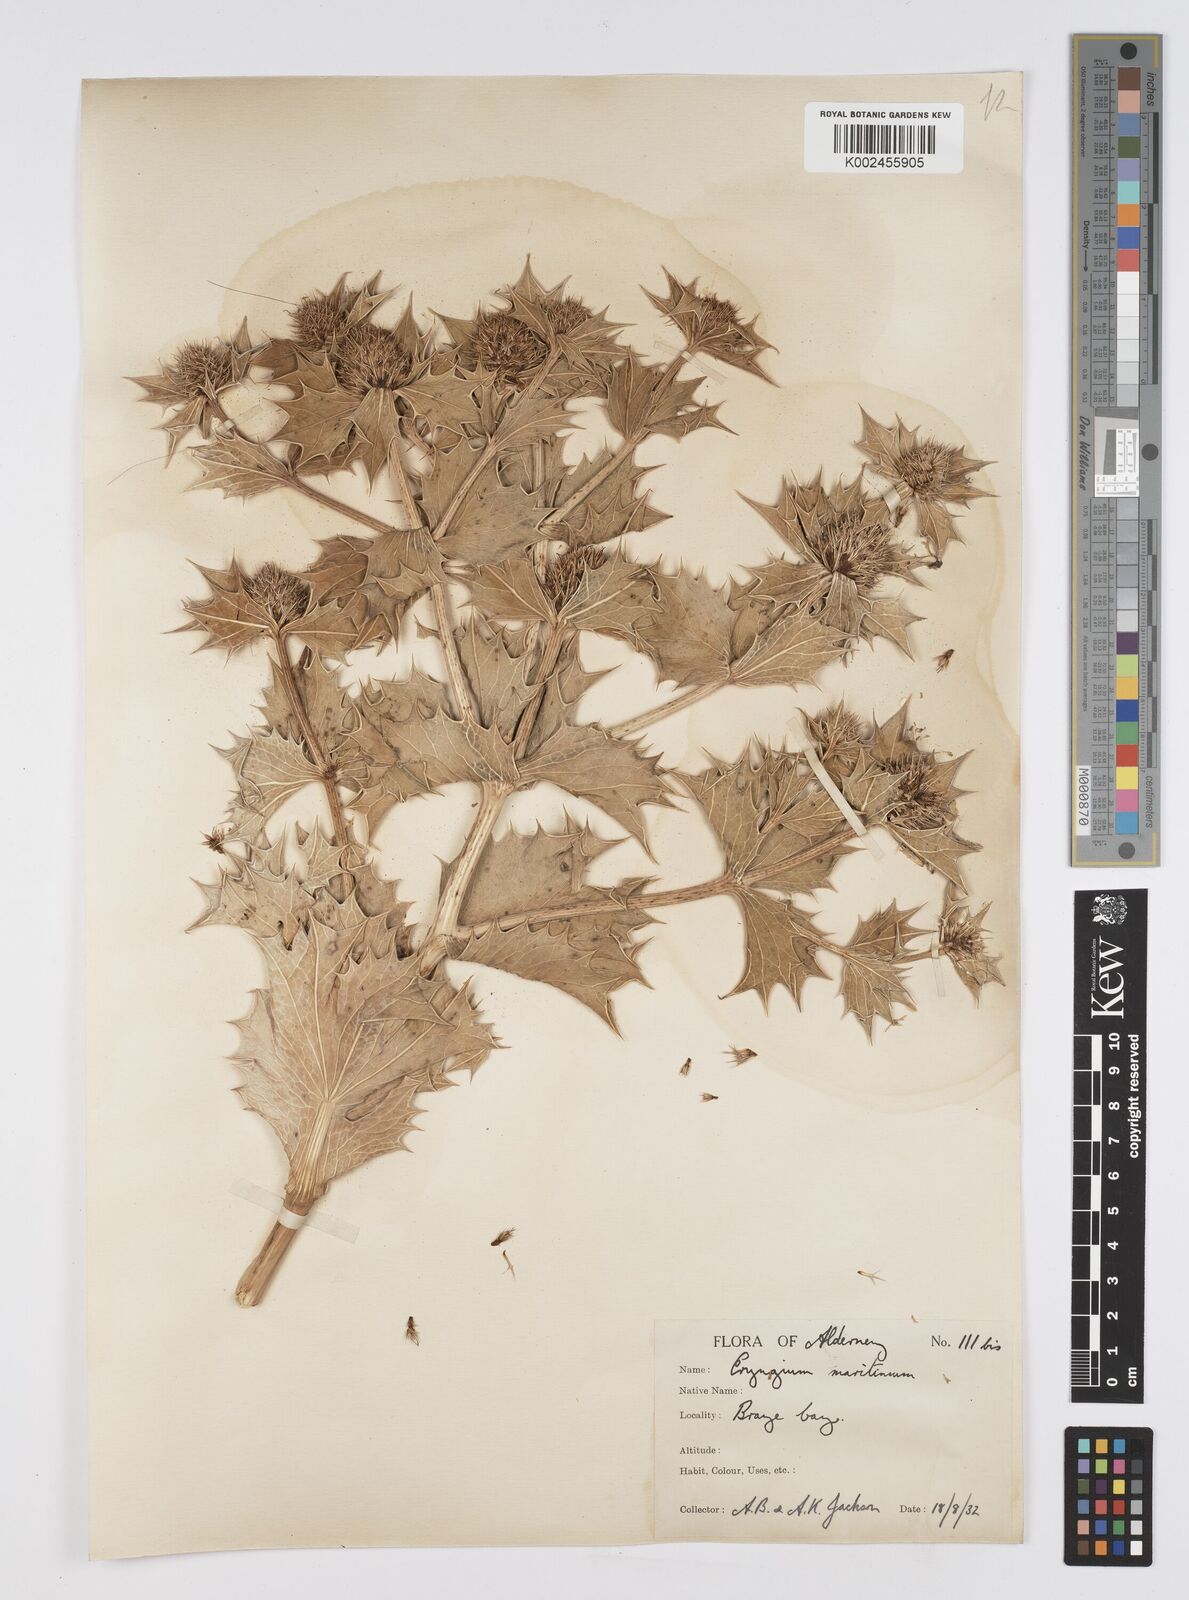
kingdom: Plantae
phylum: Tracheophyta
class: Magnoliopsida
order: Apiales
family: Apiaceae
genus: Eryngium
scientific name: Eryngium maritimum
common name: Sea-holly
